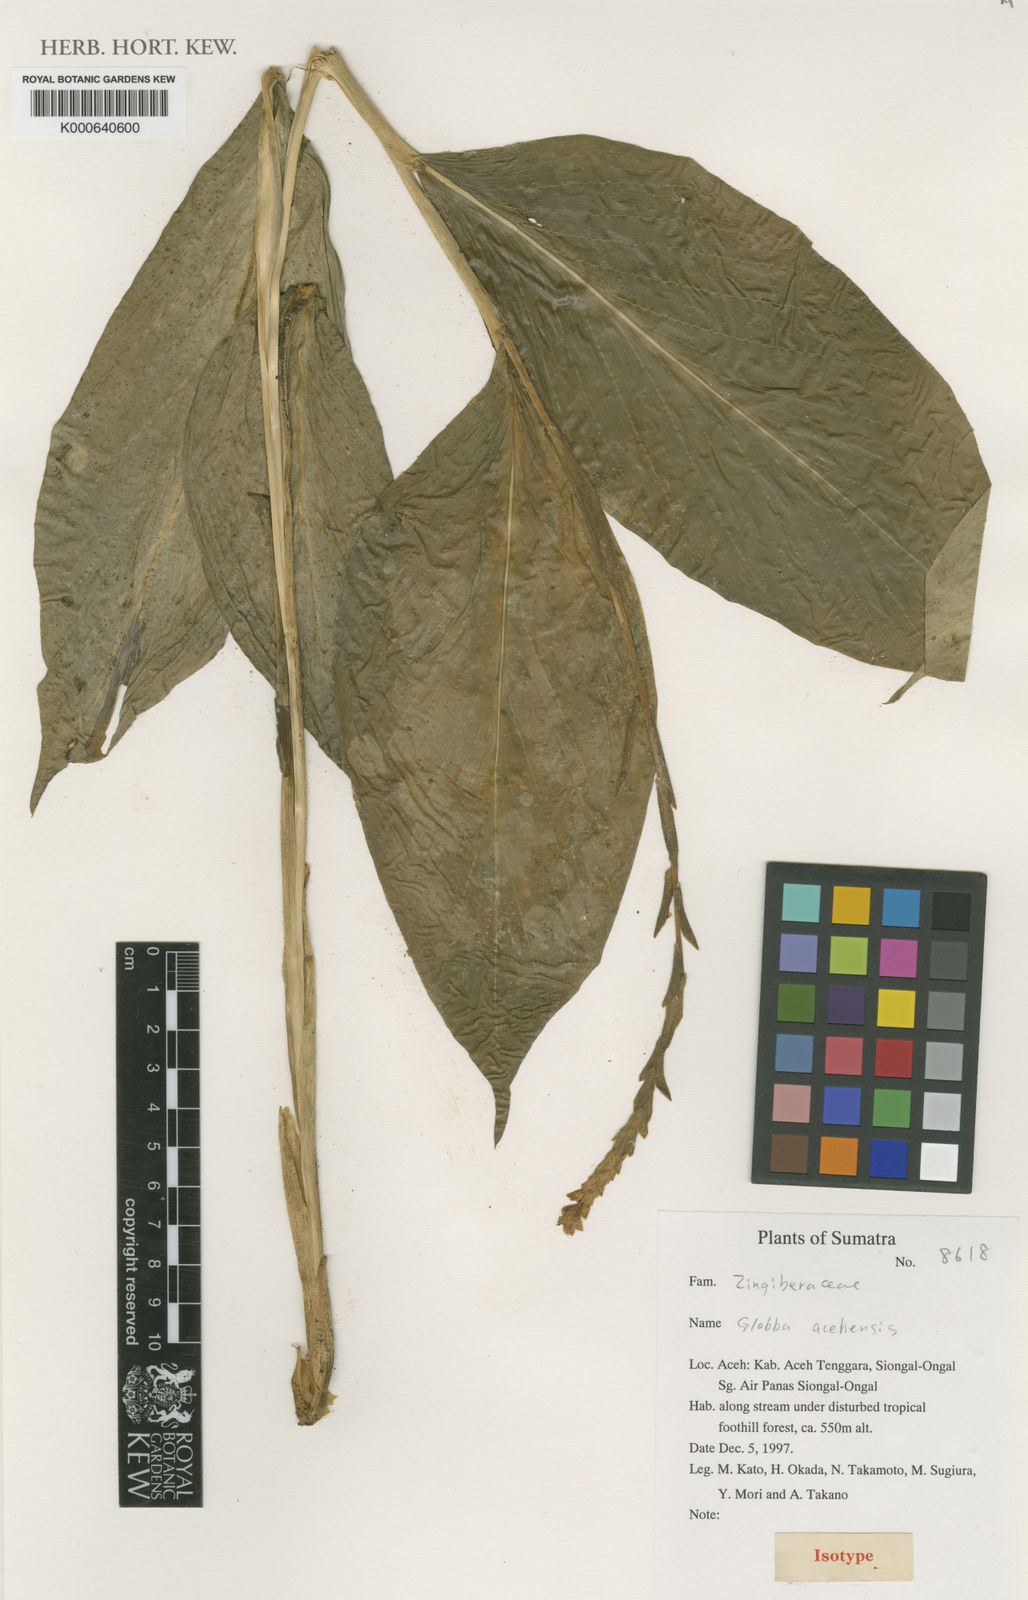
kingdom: Plantae
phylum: Tracheophyta
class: Liliopsida
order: Zingiberales
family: Zingiberaceae
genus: Globba
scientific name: Globba acehensis
